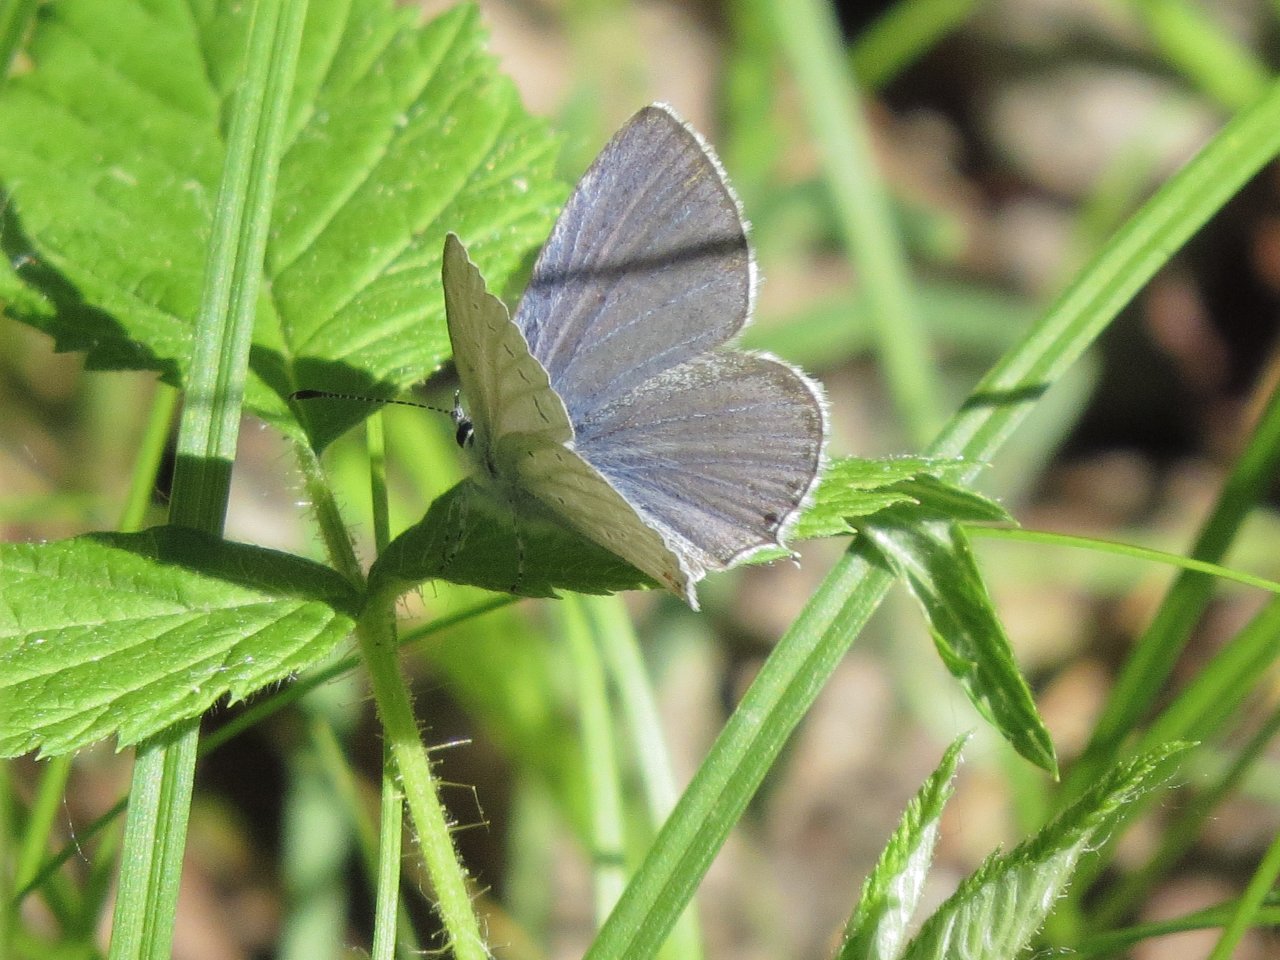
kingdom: Animalia
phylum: Arthropoda
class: Insecta
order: Lepidoptera
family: Lycaenidae
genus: Elkalyce
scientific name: Elkalyce amyntula
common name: Western Tailed-Blue
